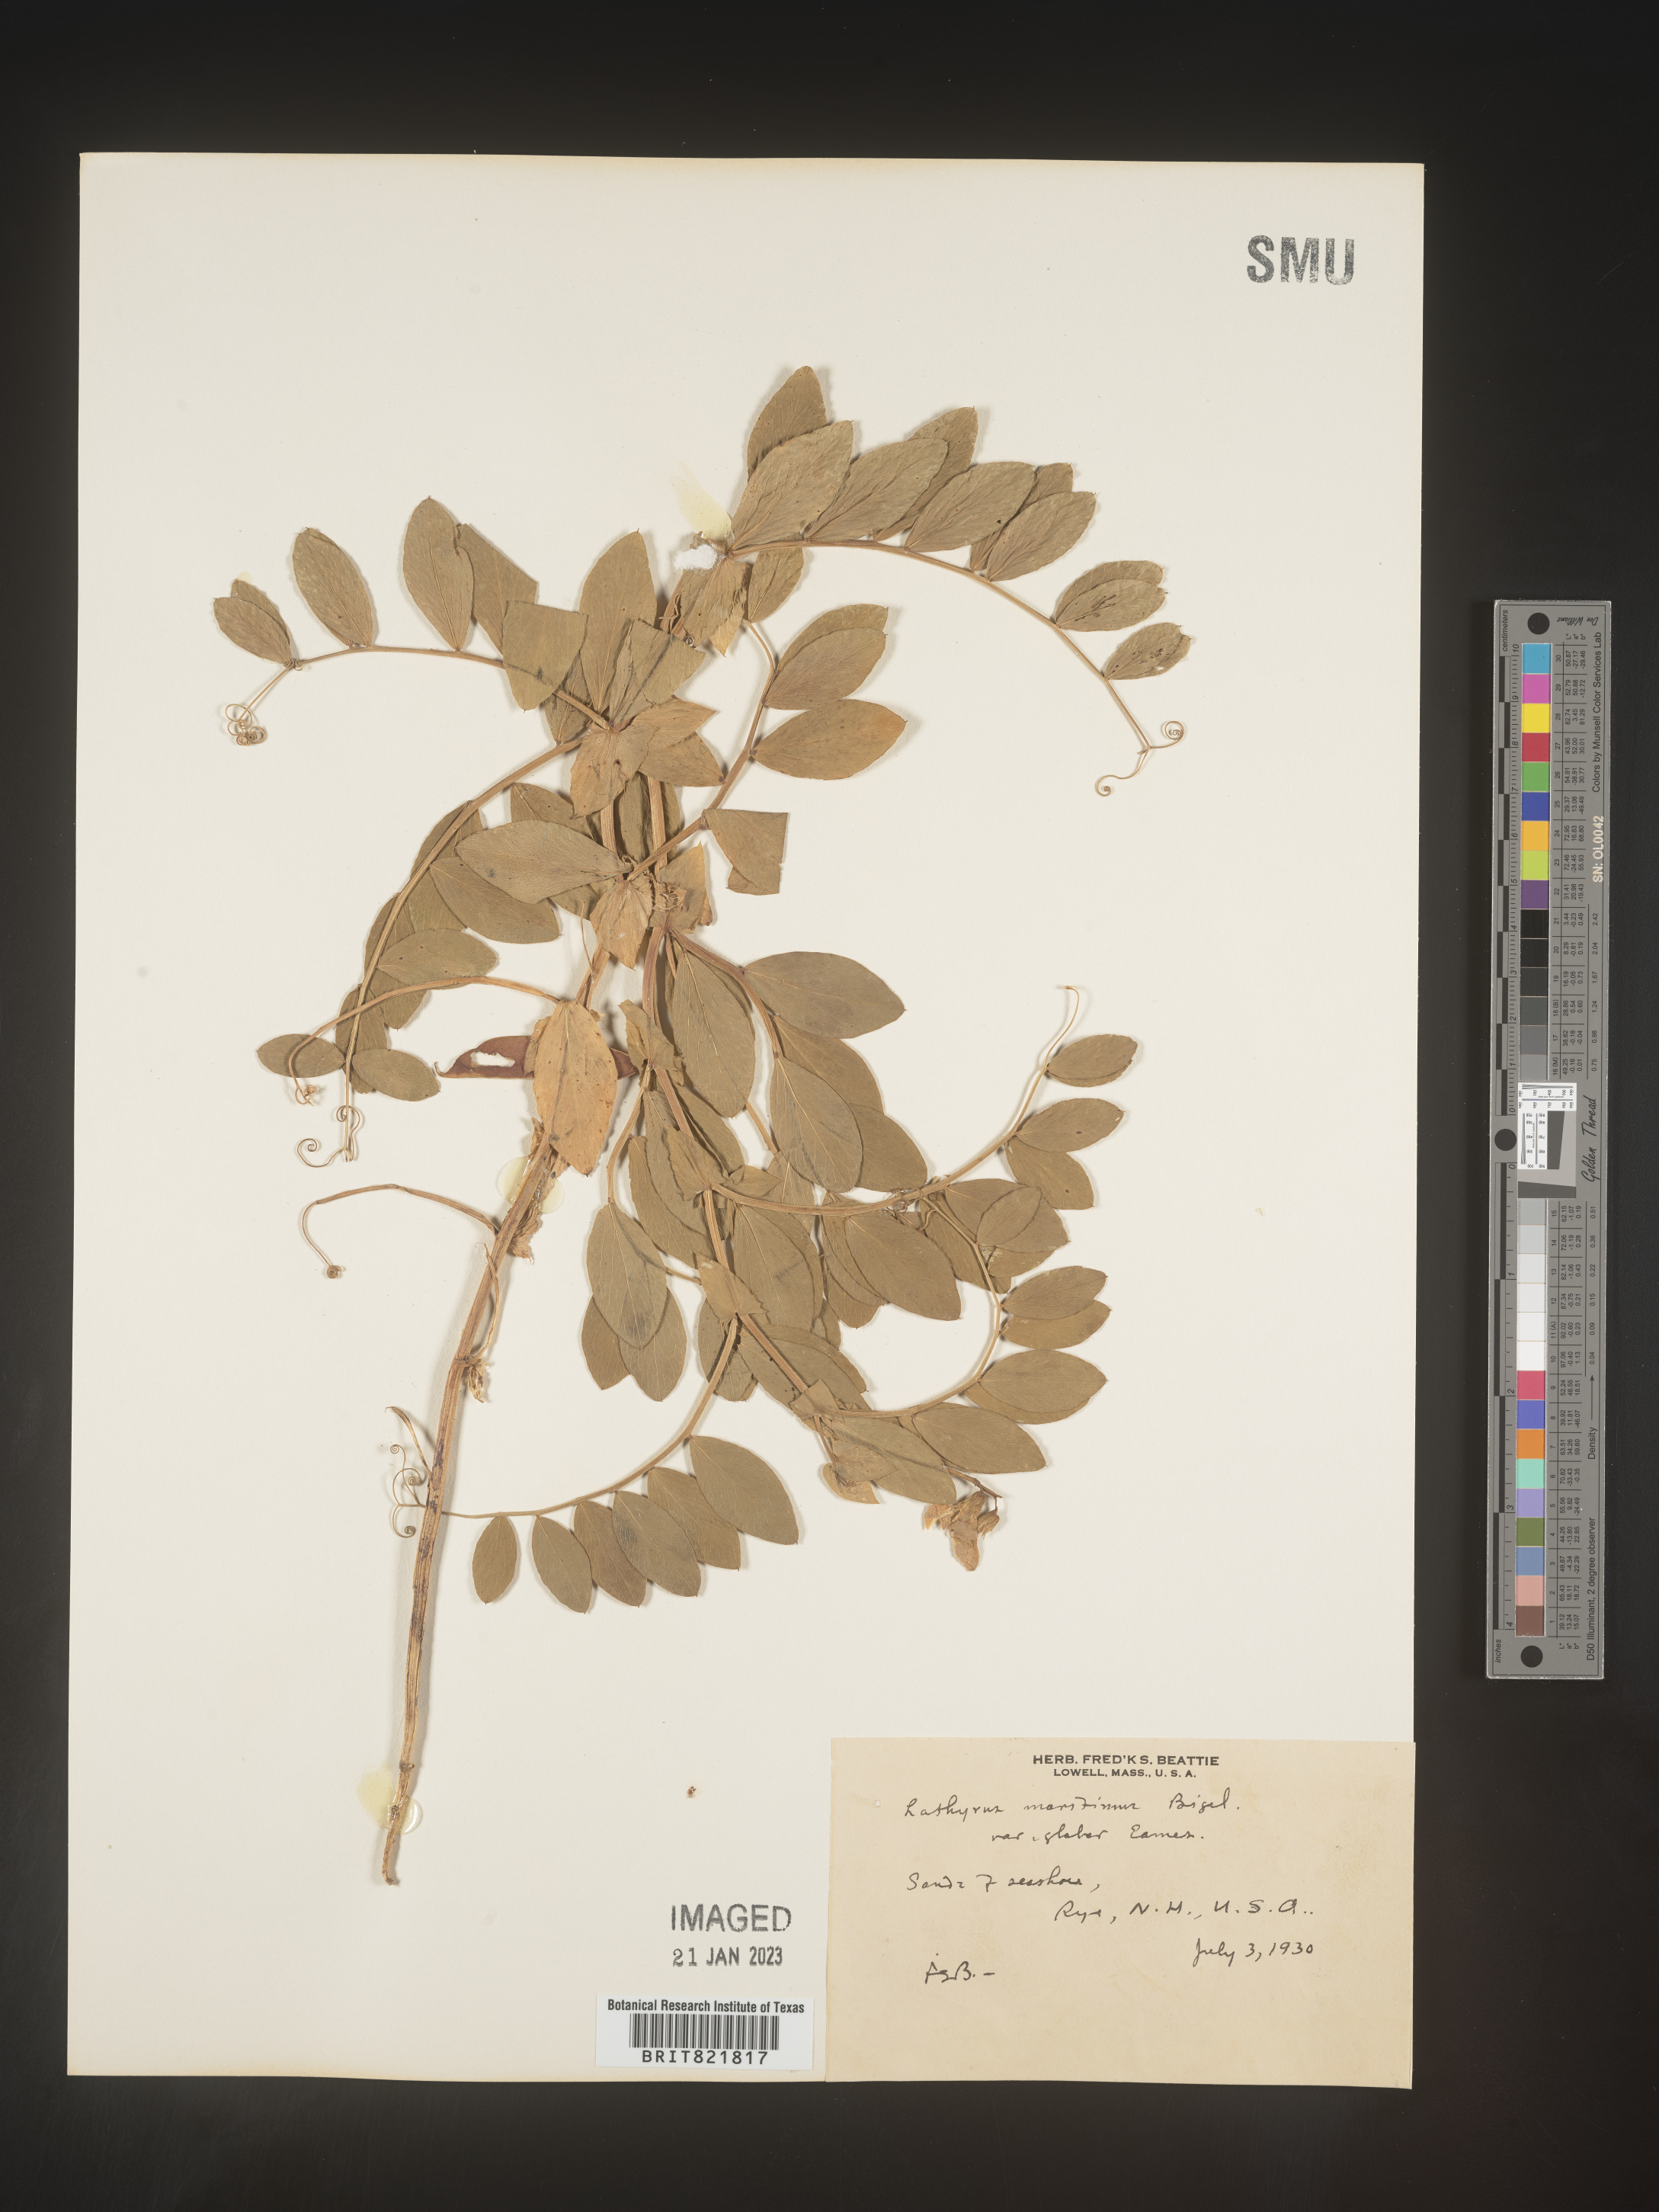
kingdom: Plantae
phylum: Tracheophyta
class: Magnoliopsida
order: Fabales
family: Fabaceae
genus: Lathyrus
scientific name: Lathyrus japonicus
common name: Sea pea
